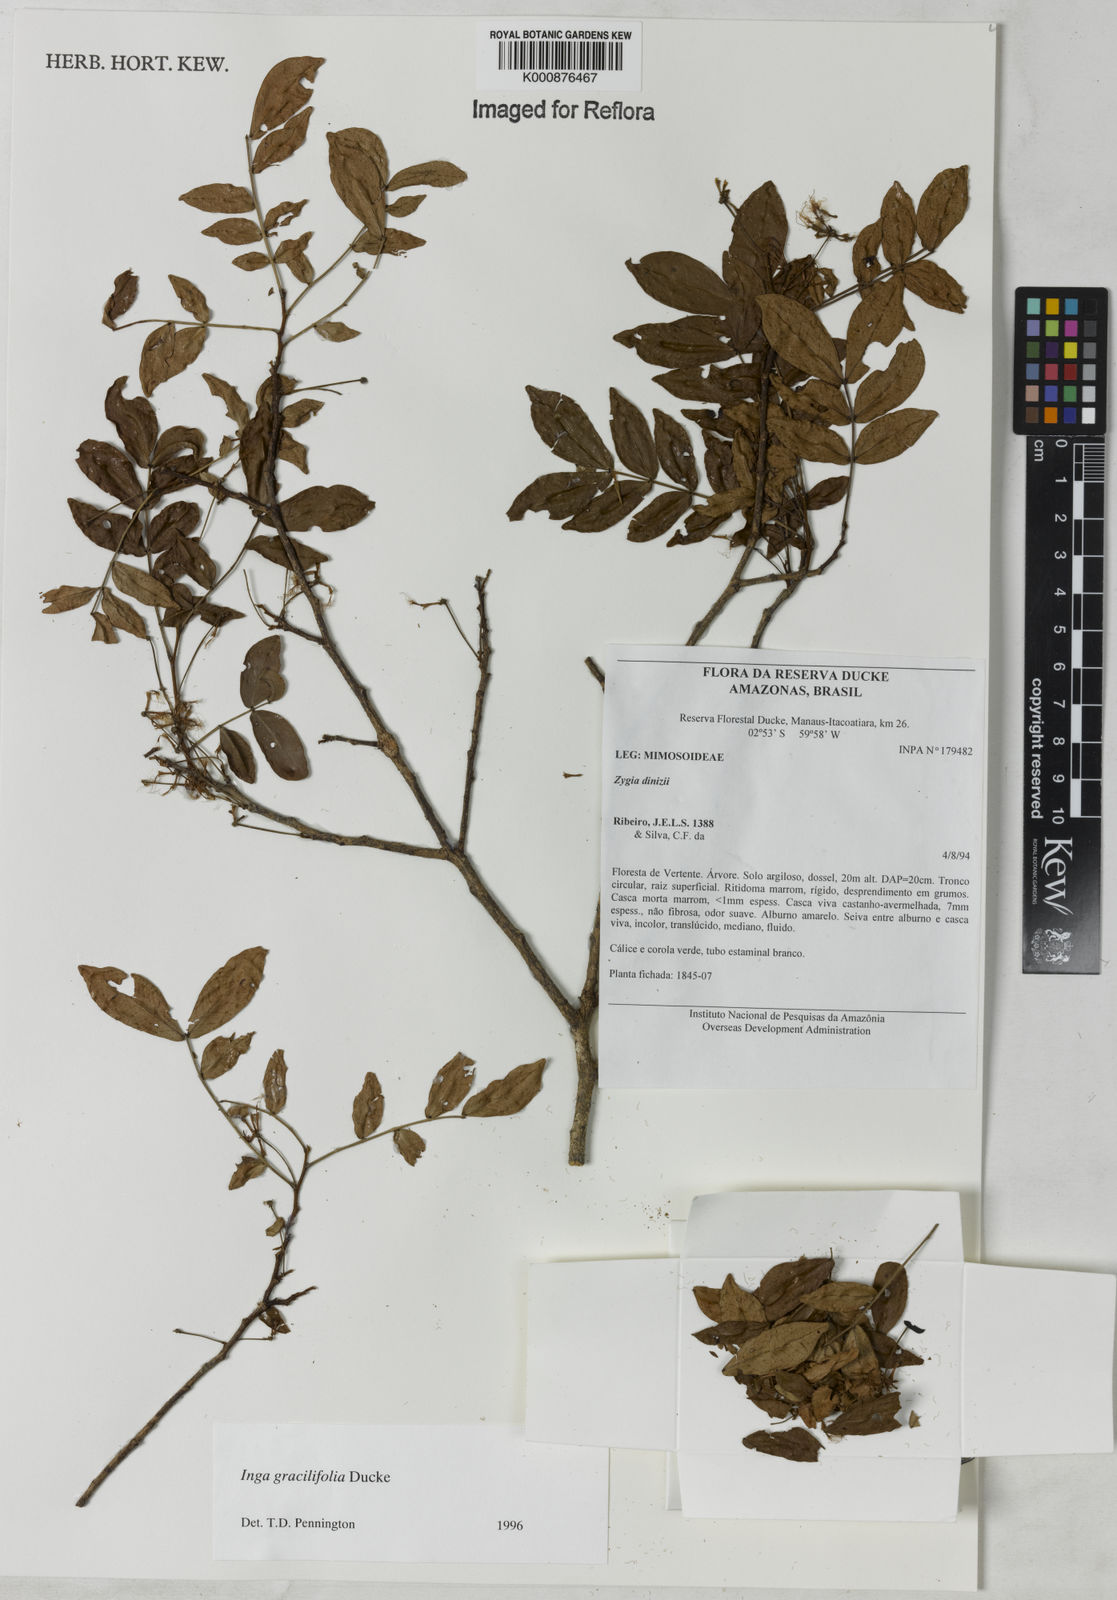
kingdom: Plantae
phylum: Tracheophyta
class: Magnoliopsida
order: Fabales
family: Fabaceae
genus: Inga
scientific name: Inga gracilifolia
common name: Gracefulleaf inga
